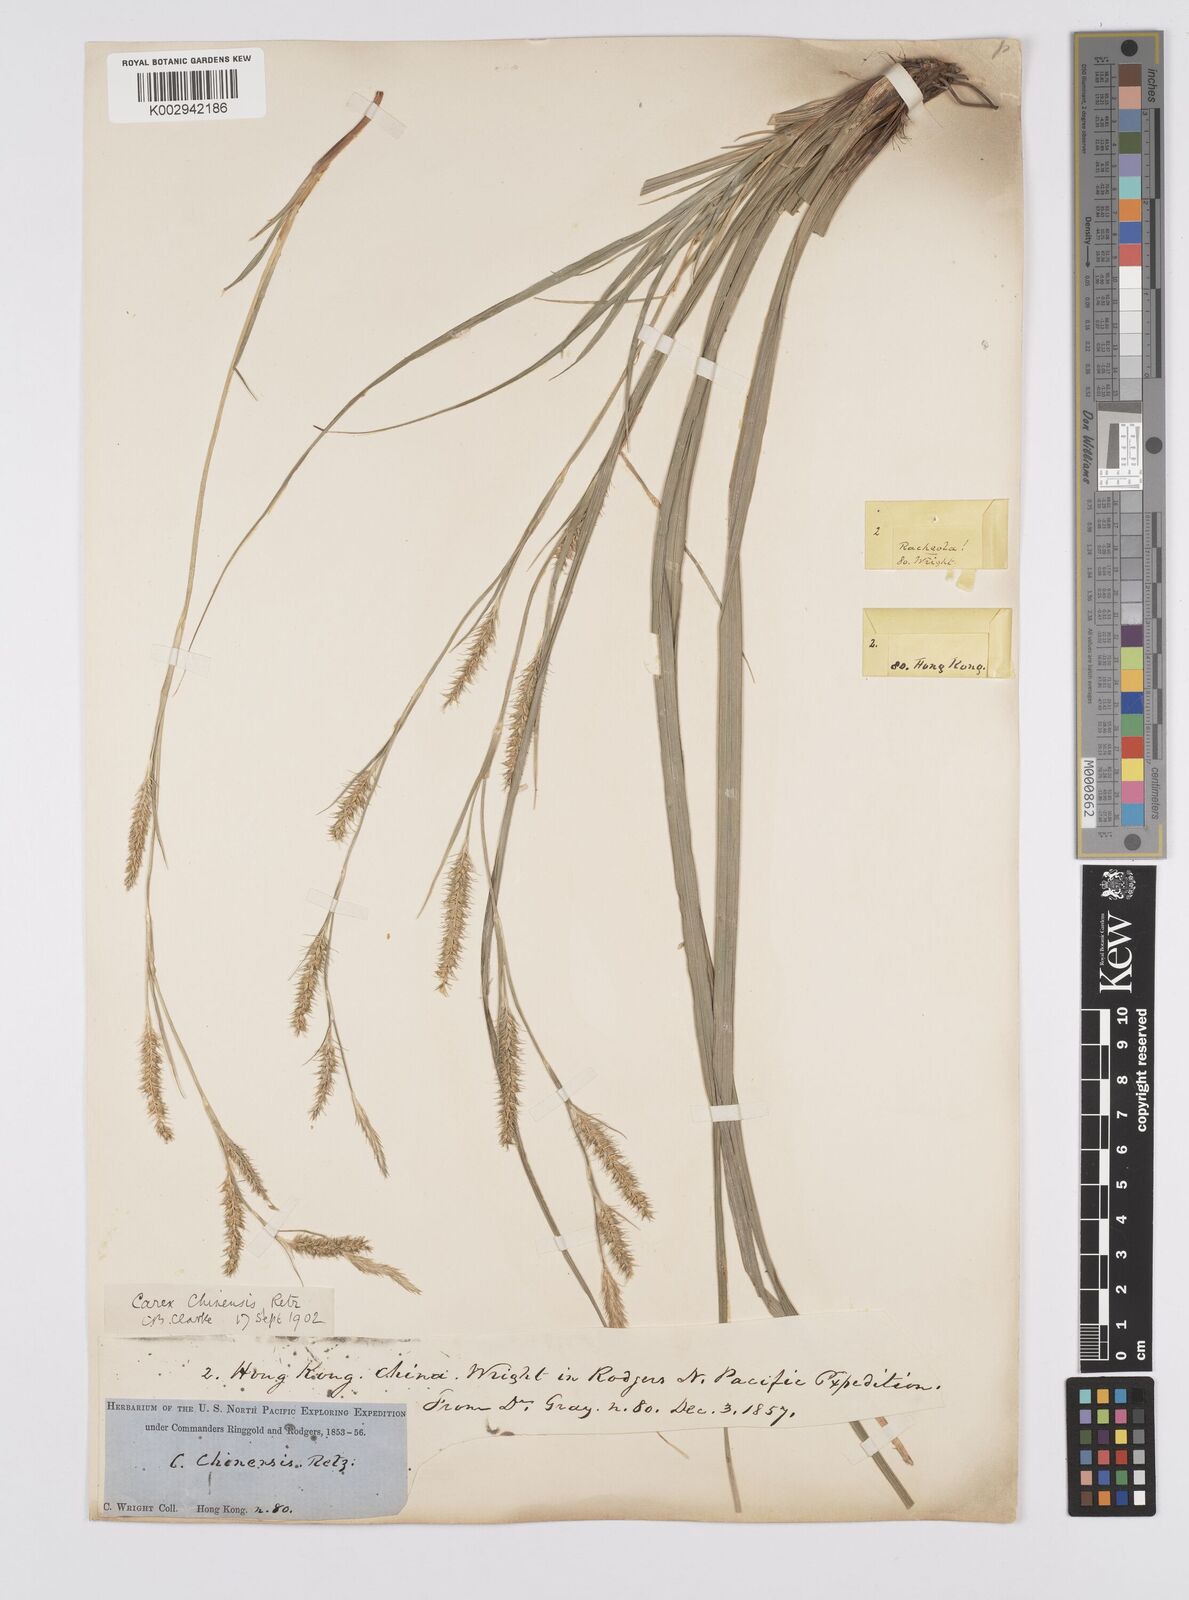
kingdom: Plantae
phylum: Tracheophyta
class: Liliopsida
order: Poales
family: Cyperaceae
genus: Carex
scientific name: Carex chinensis
